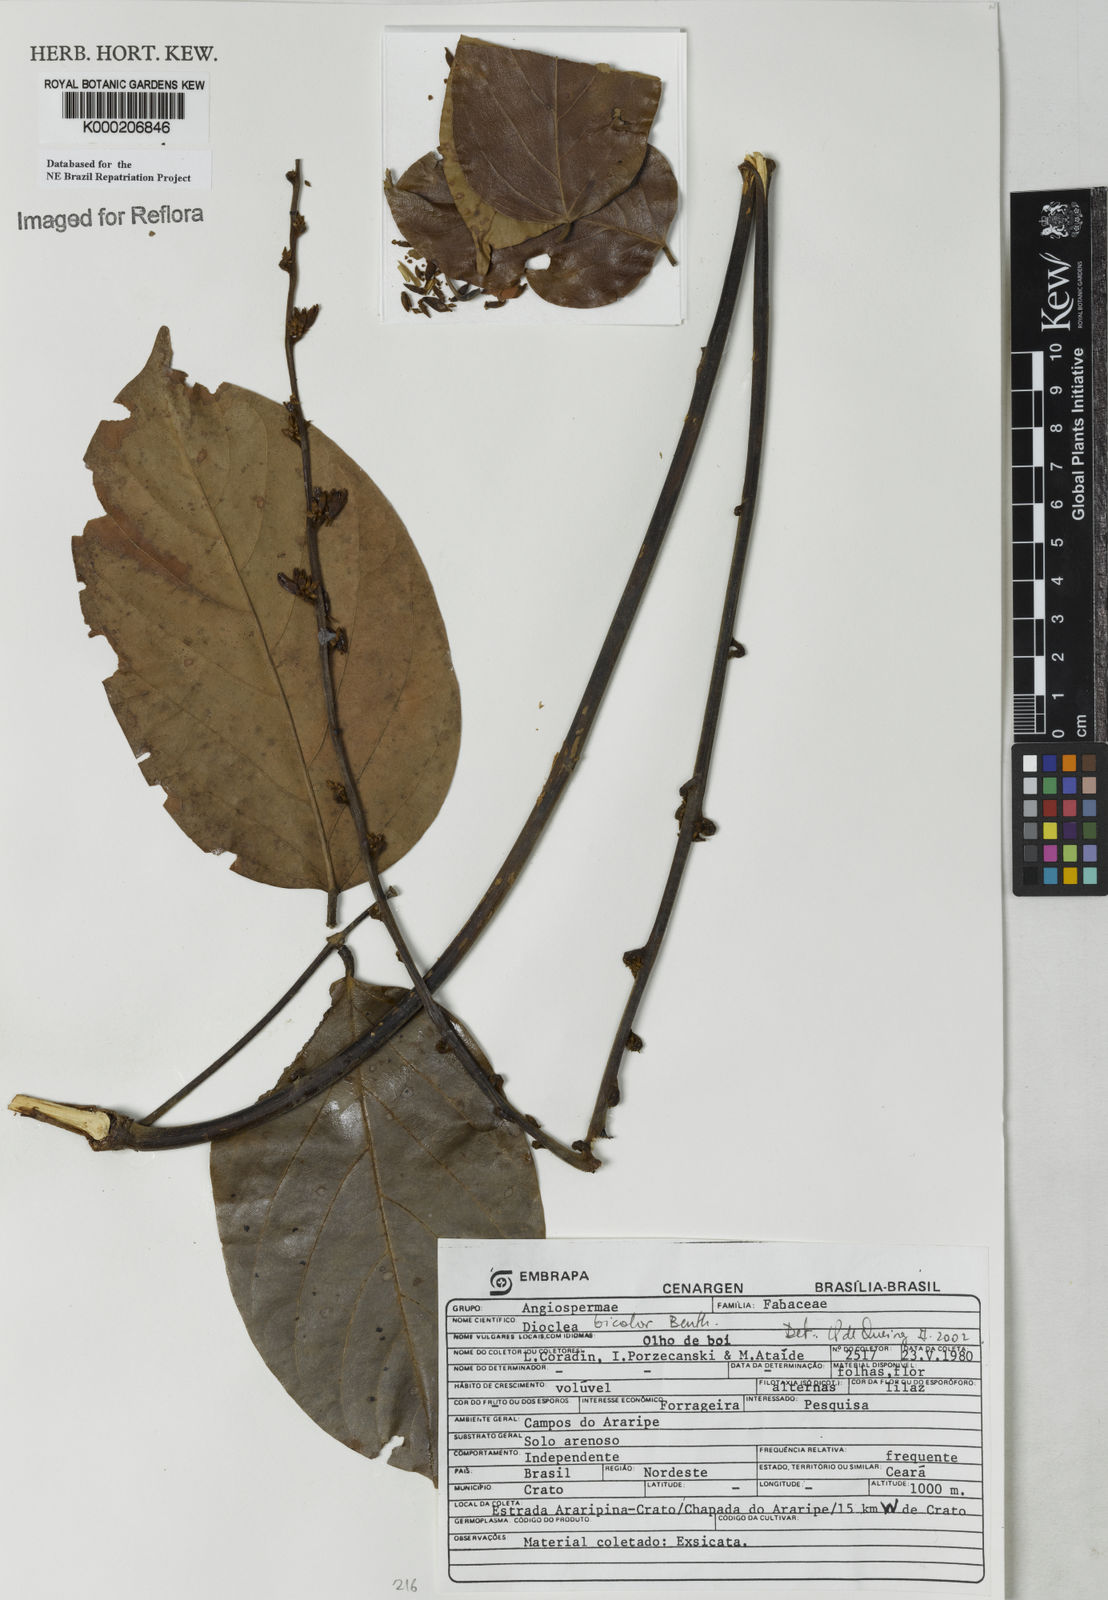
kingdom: Plantae
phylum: Tracheophyta
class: Magnoliopsida
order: Fabales
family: Fabaceae
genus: Macropsychanthus
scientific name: Macropsychanthus bicolor
